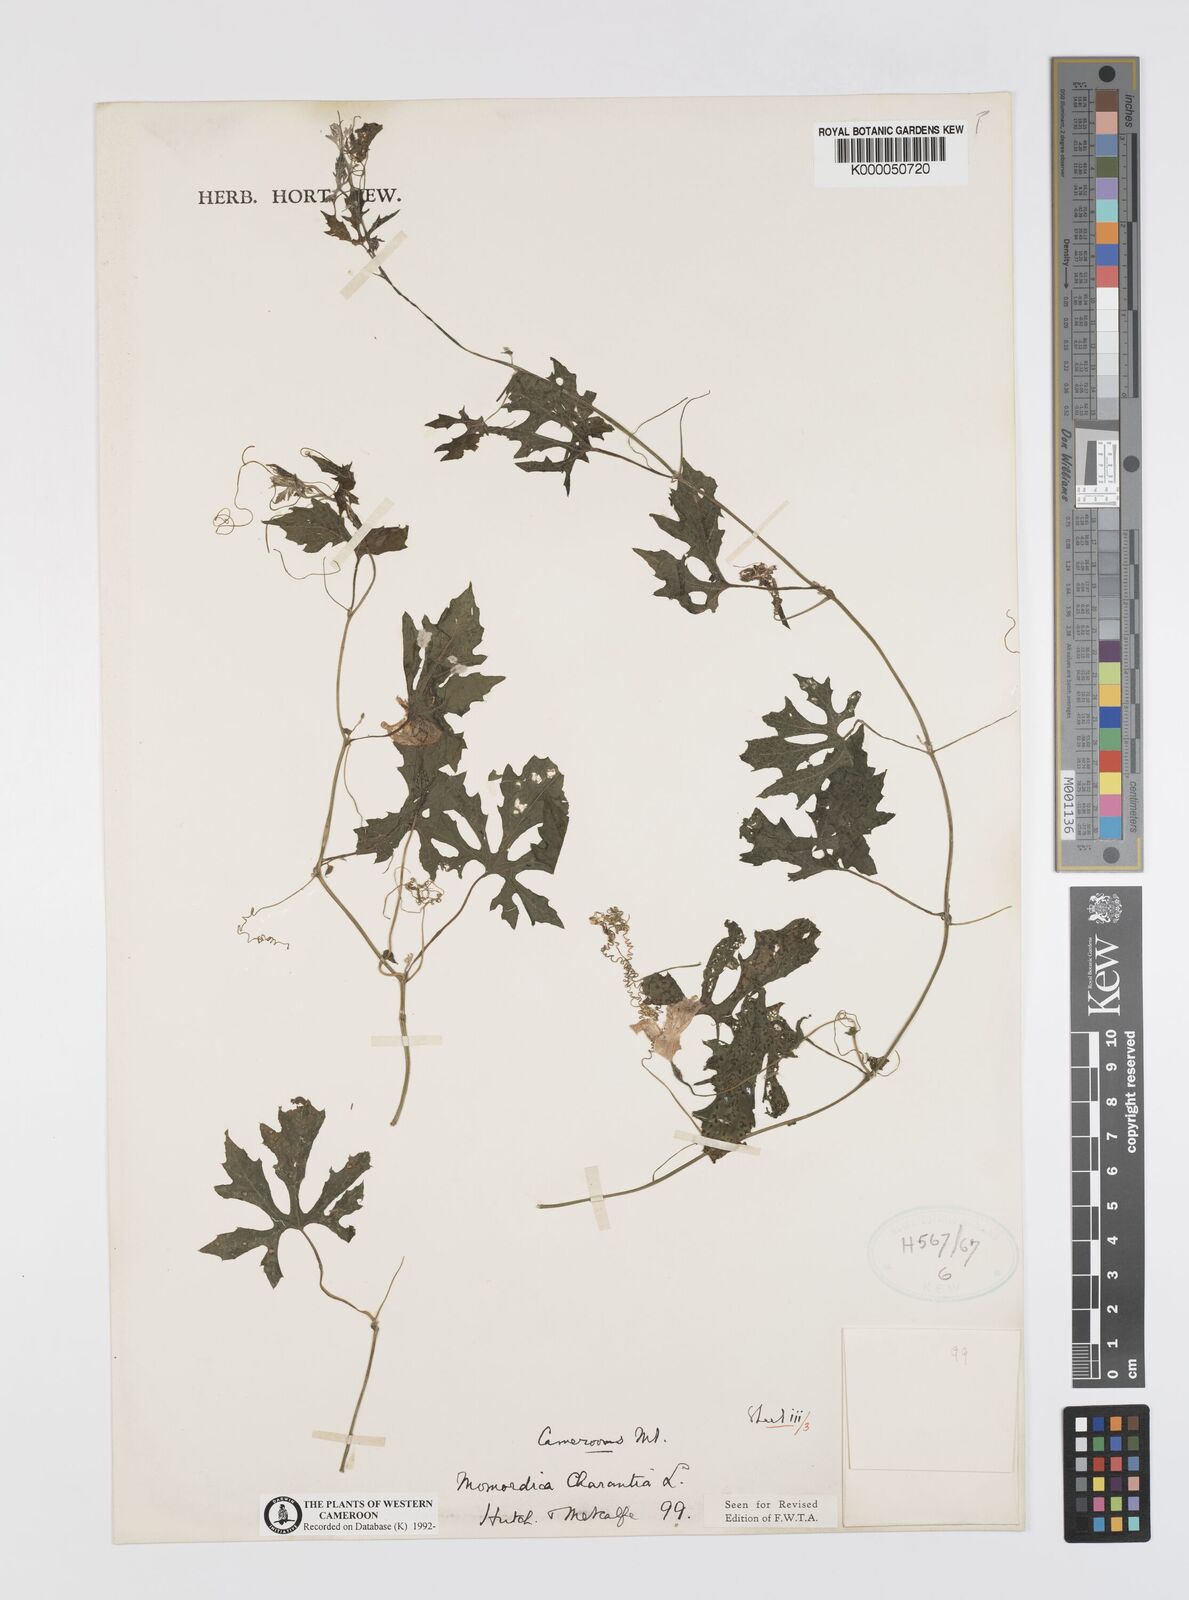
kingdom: Plantae
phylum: Tracheophyta
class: Magnoliopsida
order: Cucurbitales
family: Cucurbitaceae
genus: Momordica
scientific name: Momordica charantia
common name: Balsampear
